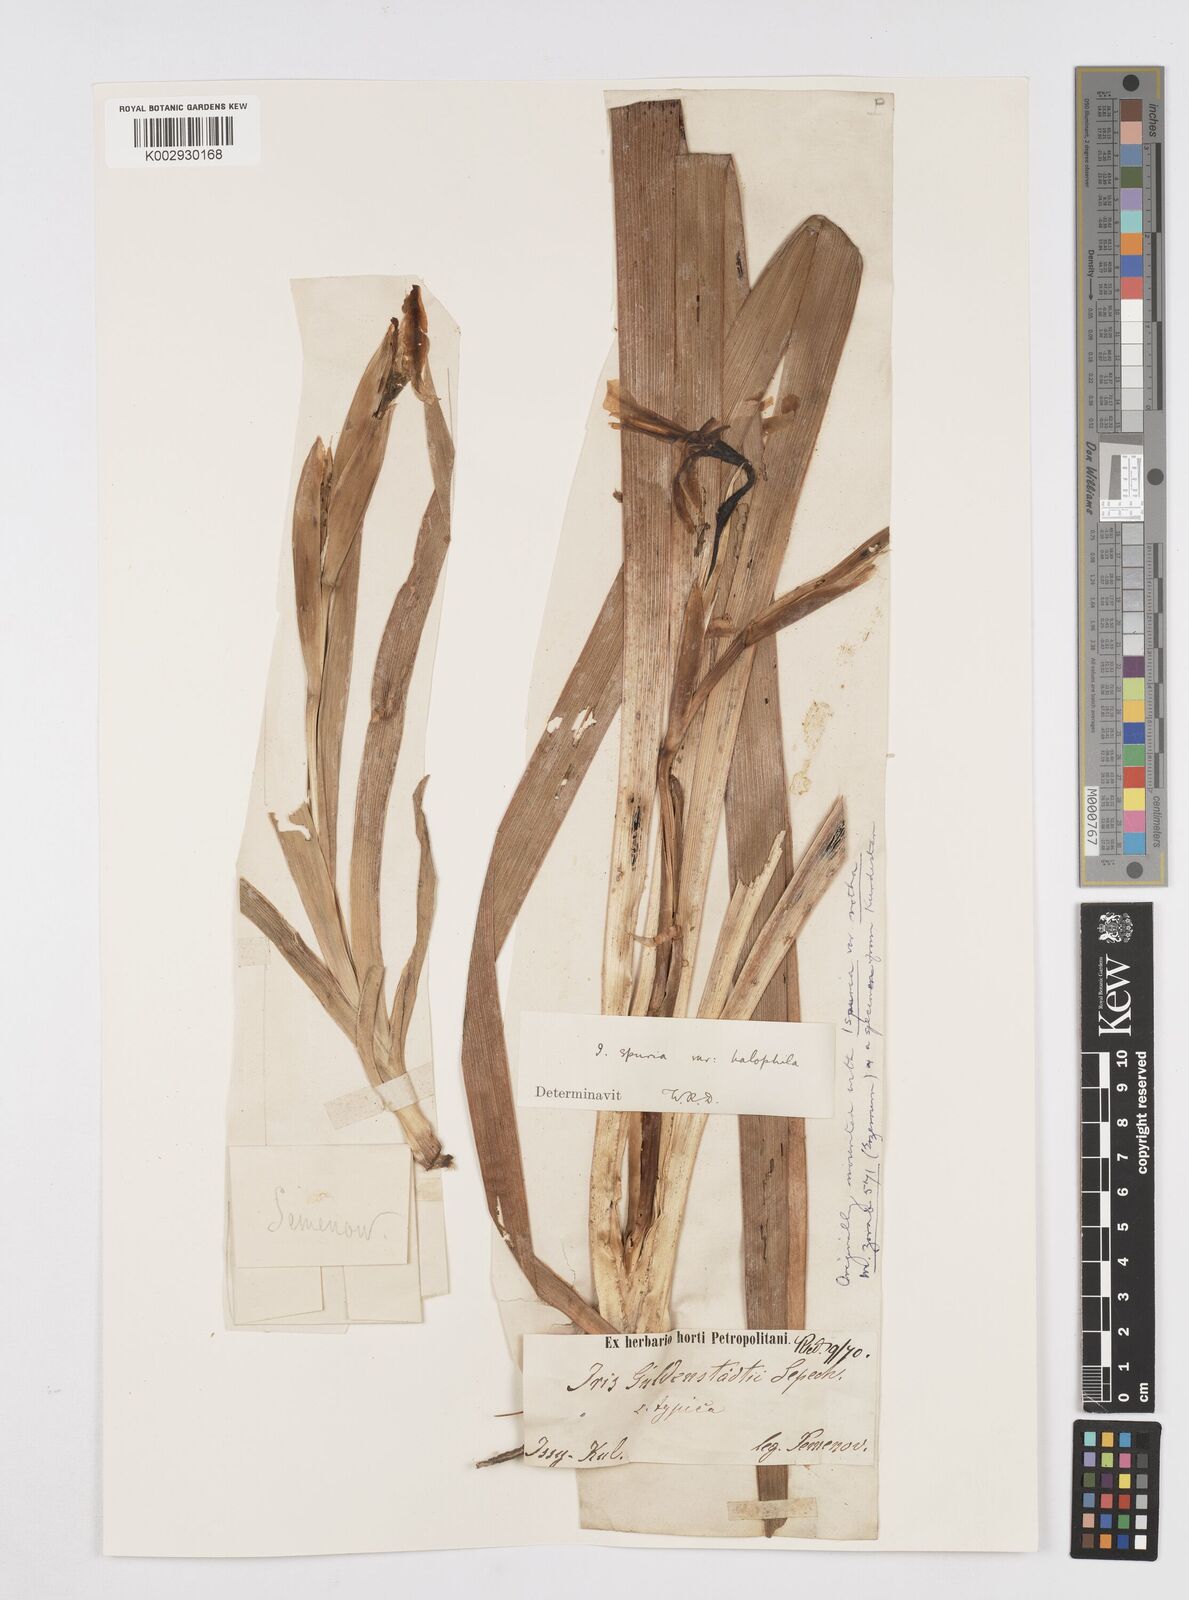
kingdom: Plantae
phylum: Tracheophyta
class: Liliopsida
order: Asparagales
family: Iridaceae
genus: Iris
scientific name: Iris halophila
